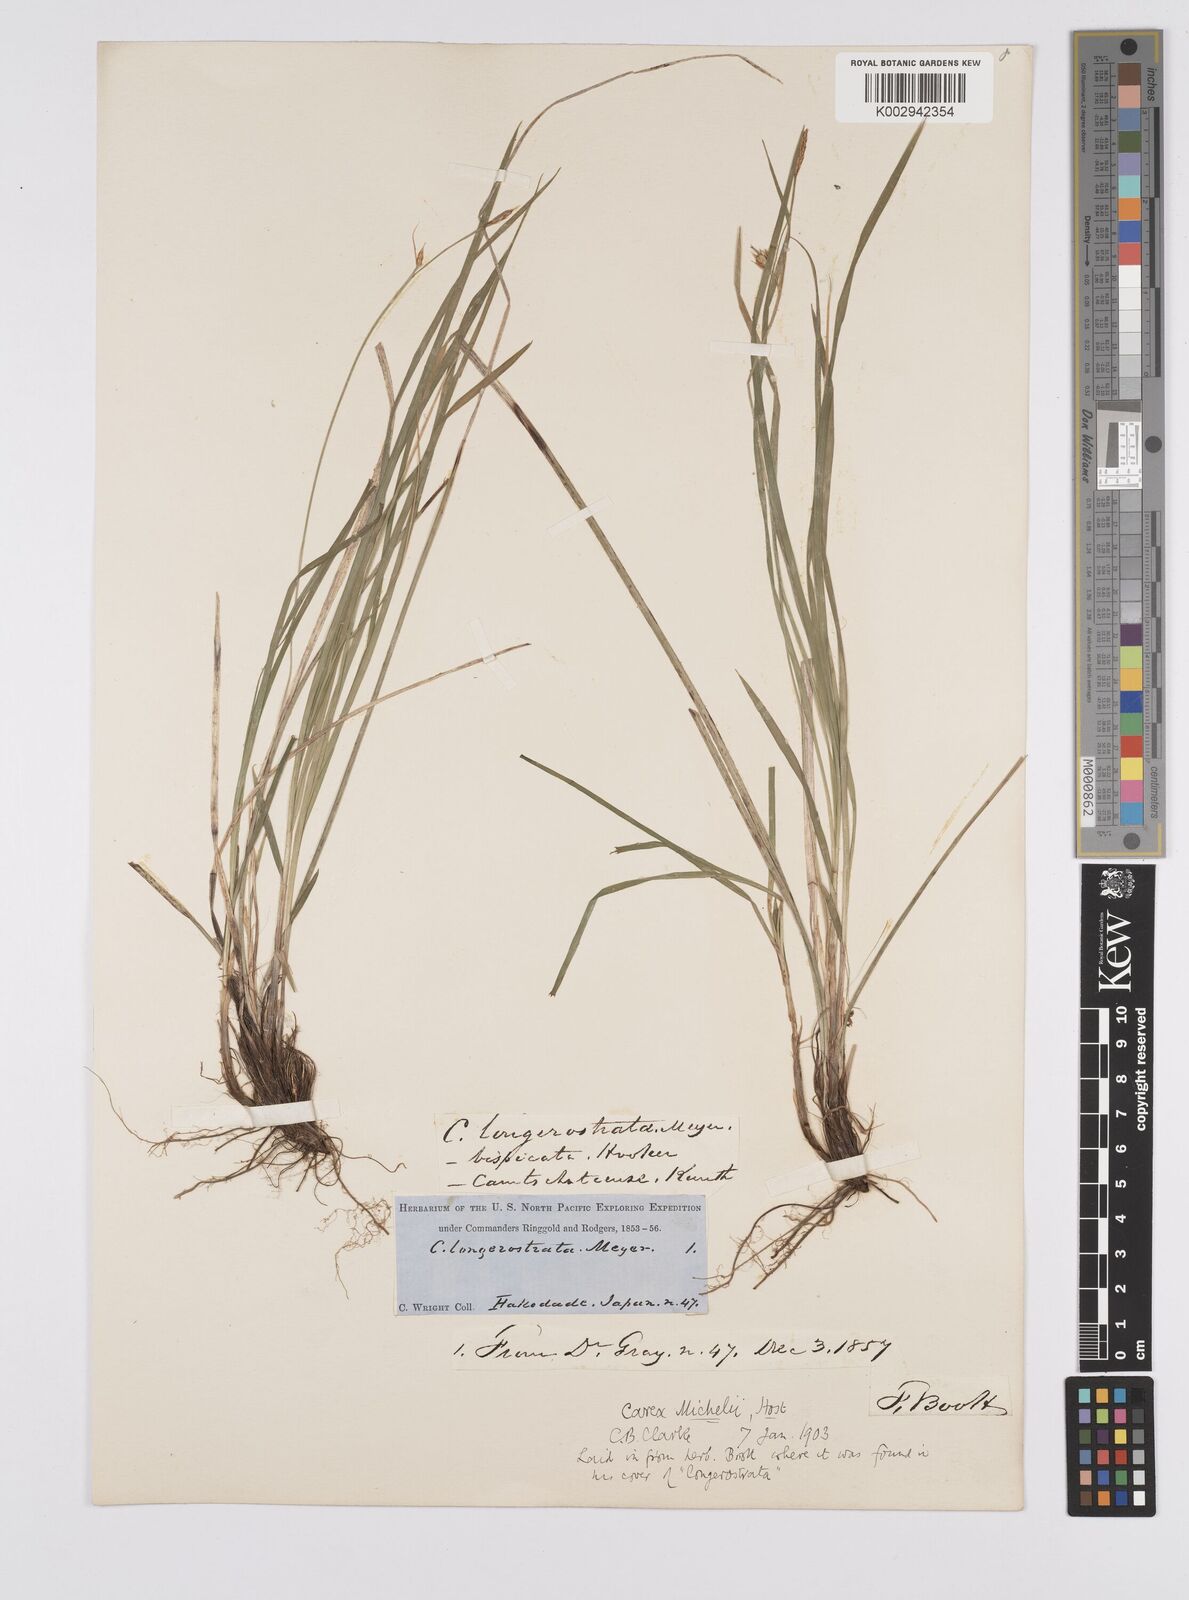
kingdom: Plantae
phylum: Tracheophyta
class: Liliopsida
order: Poales
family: Cyperaceae
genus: Carex
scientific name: Carex michelii
